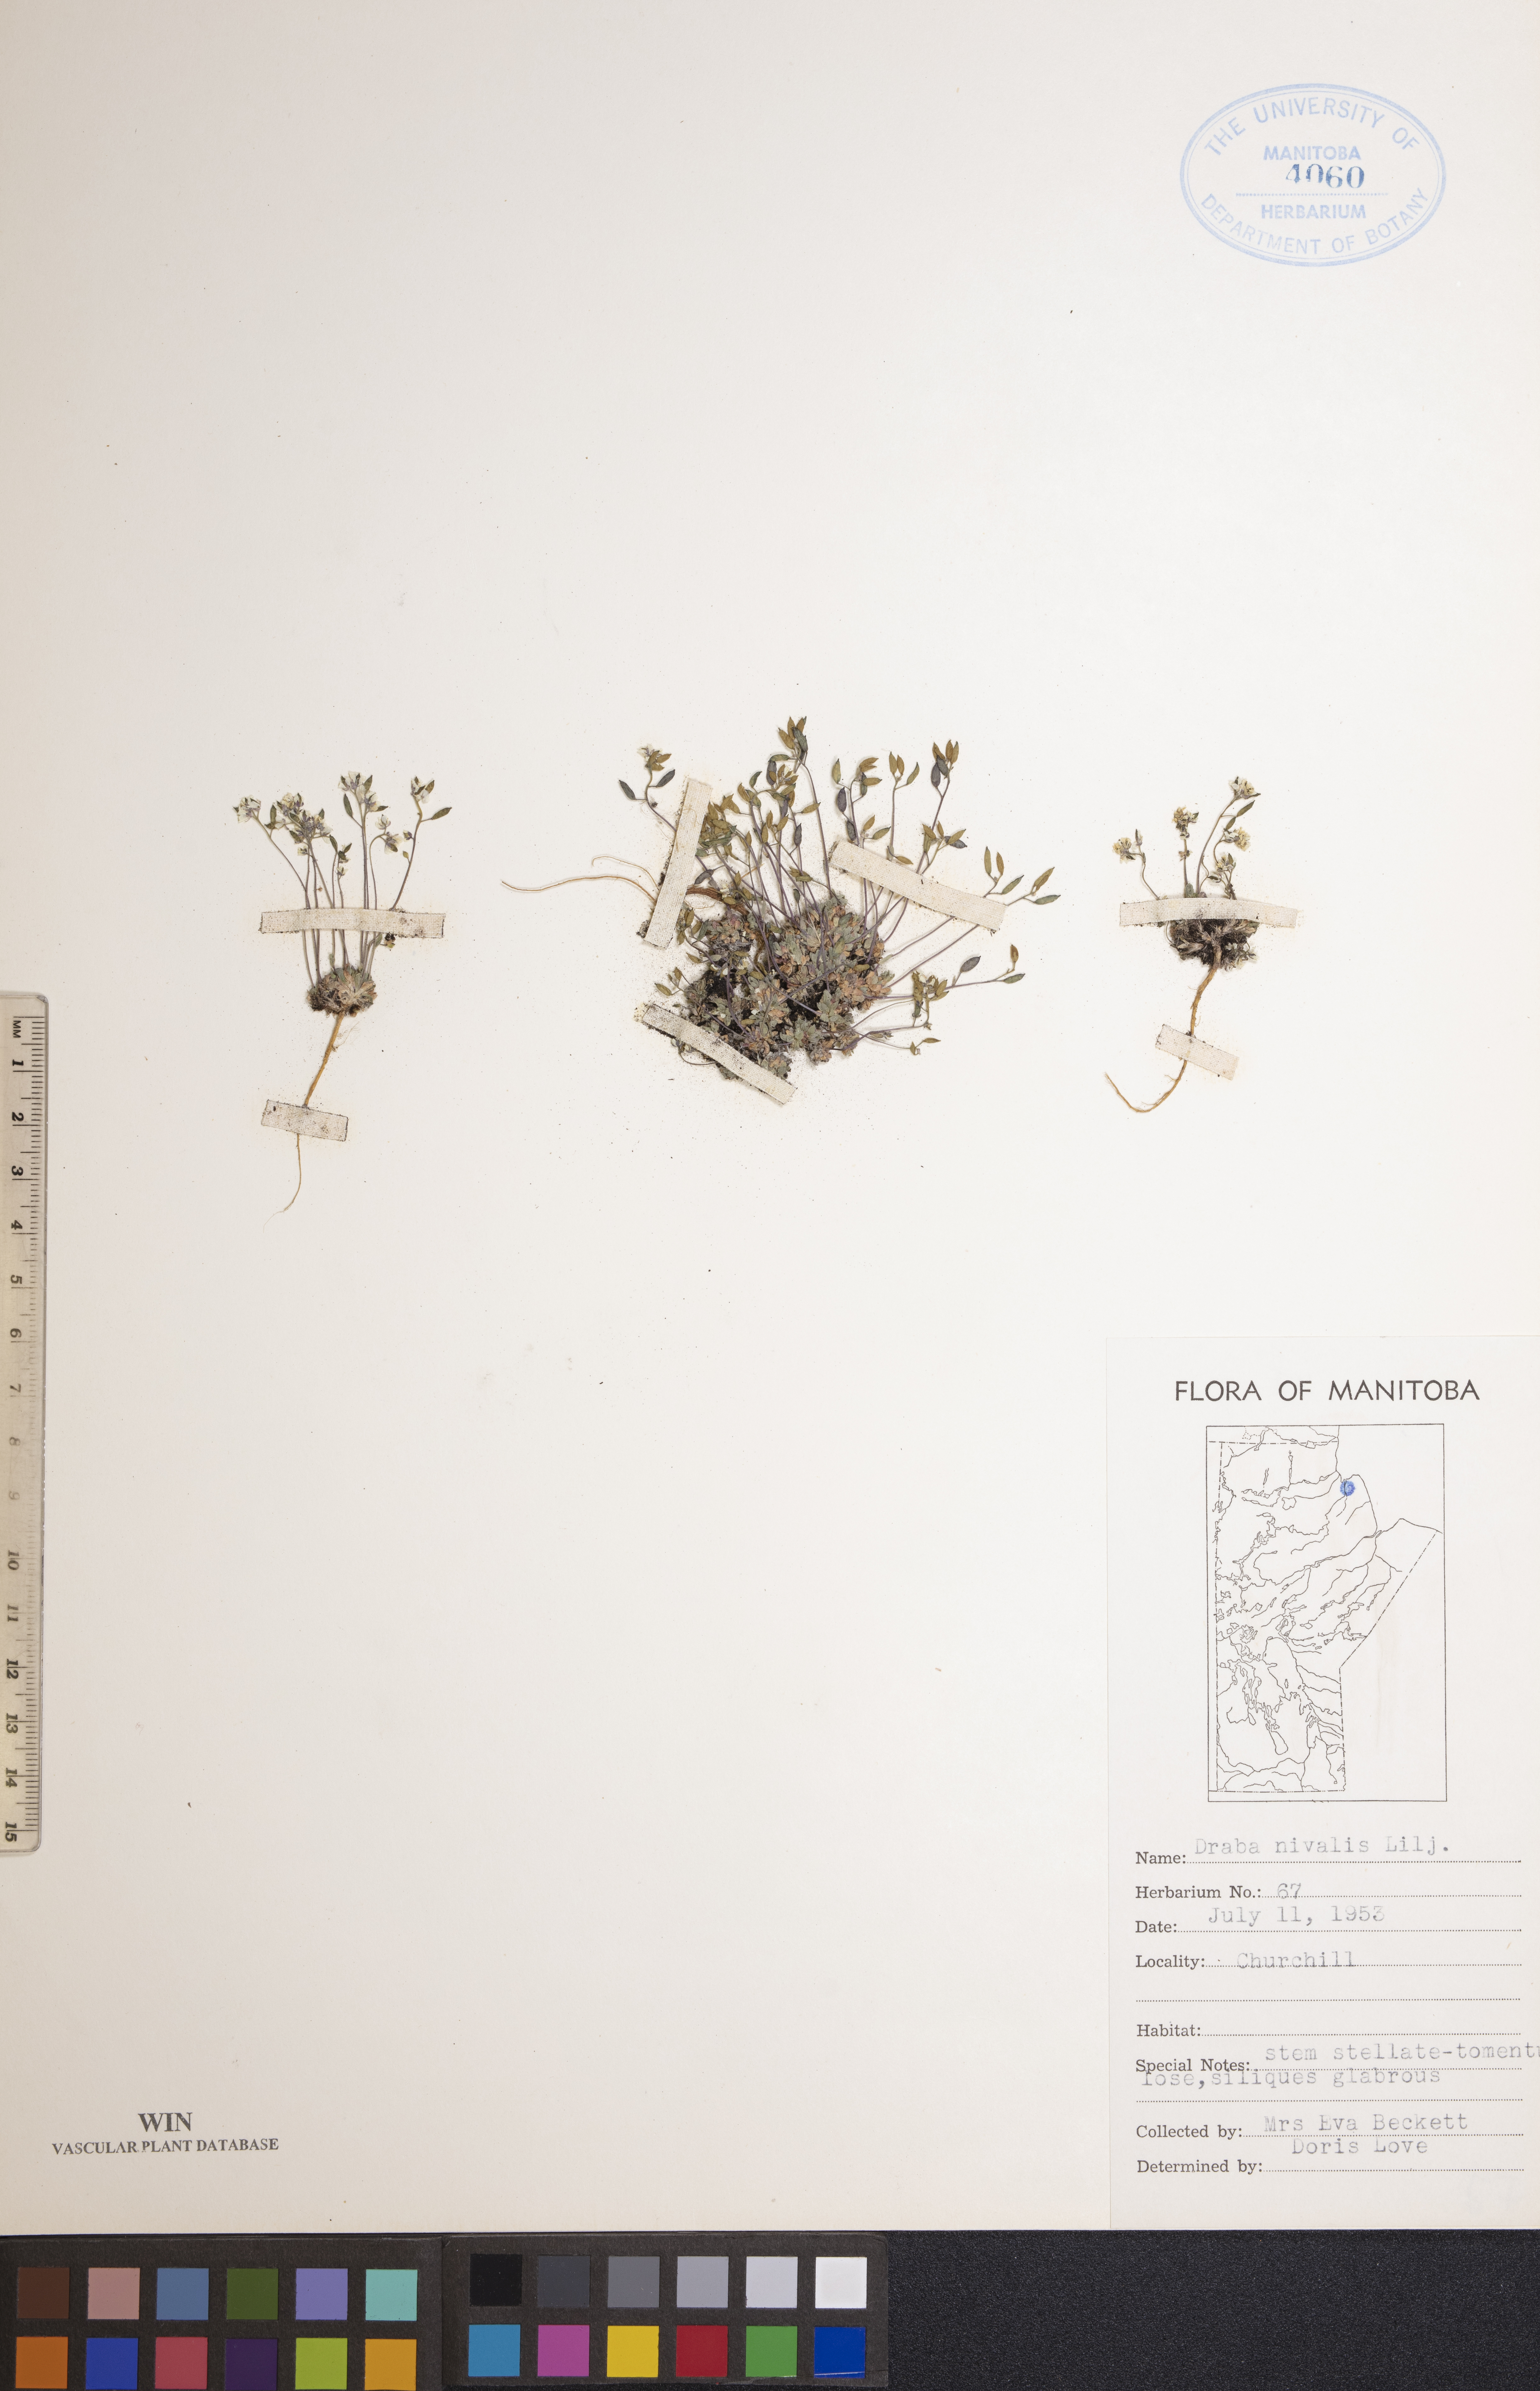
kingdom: Plantae
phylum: Tracheophyta
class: Magnoliopsida
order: Brassicales
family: Brassicaceae
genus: Draba
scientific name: Draba nivalis
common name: Snow draba
